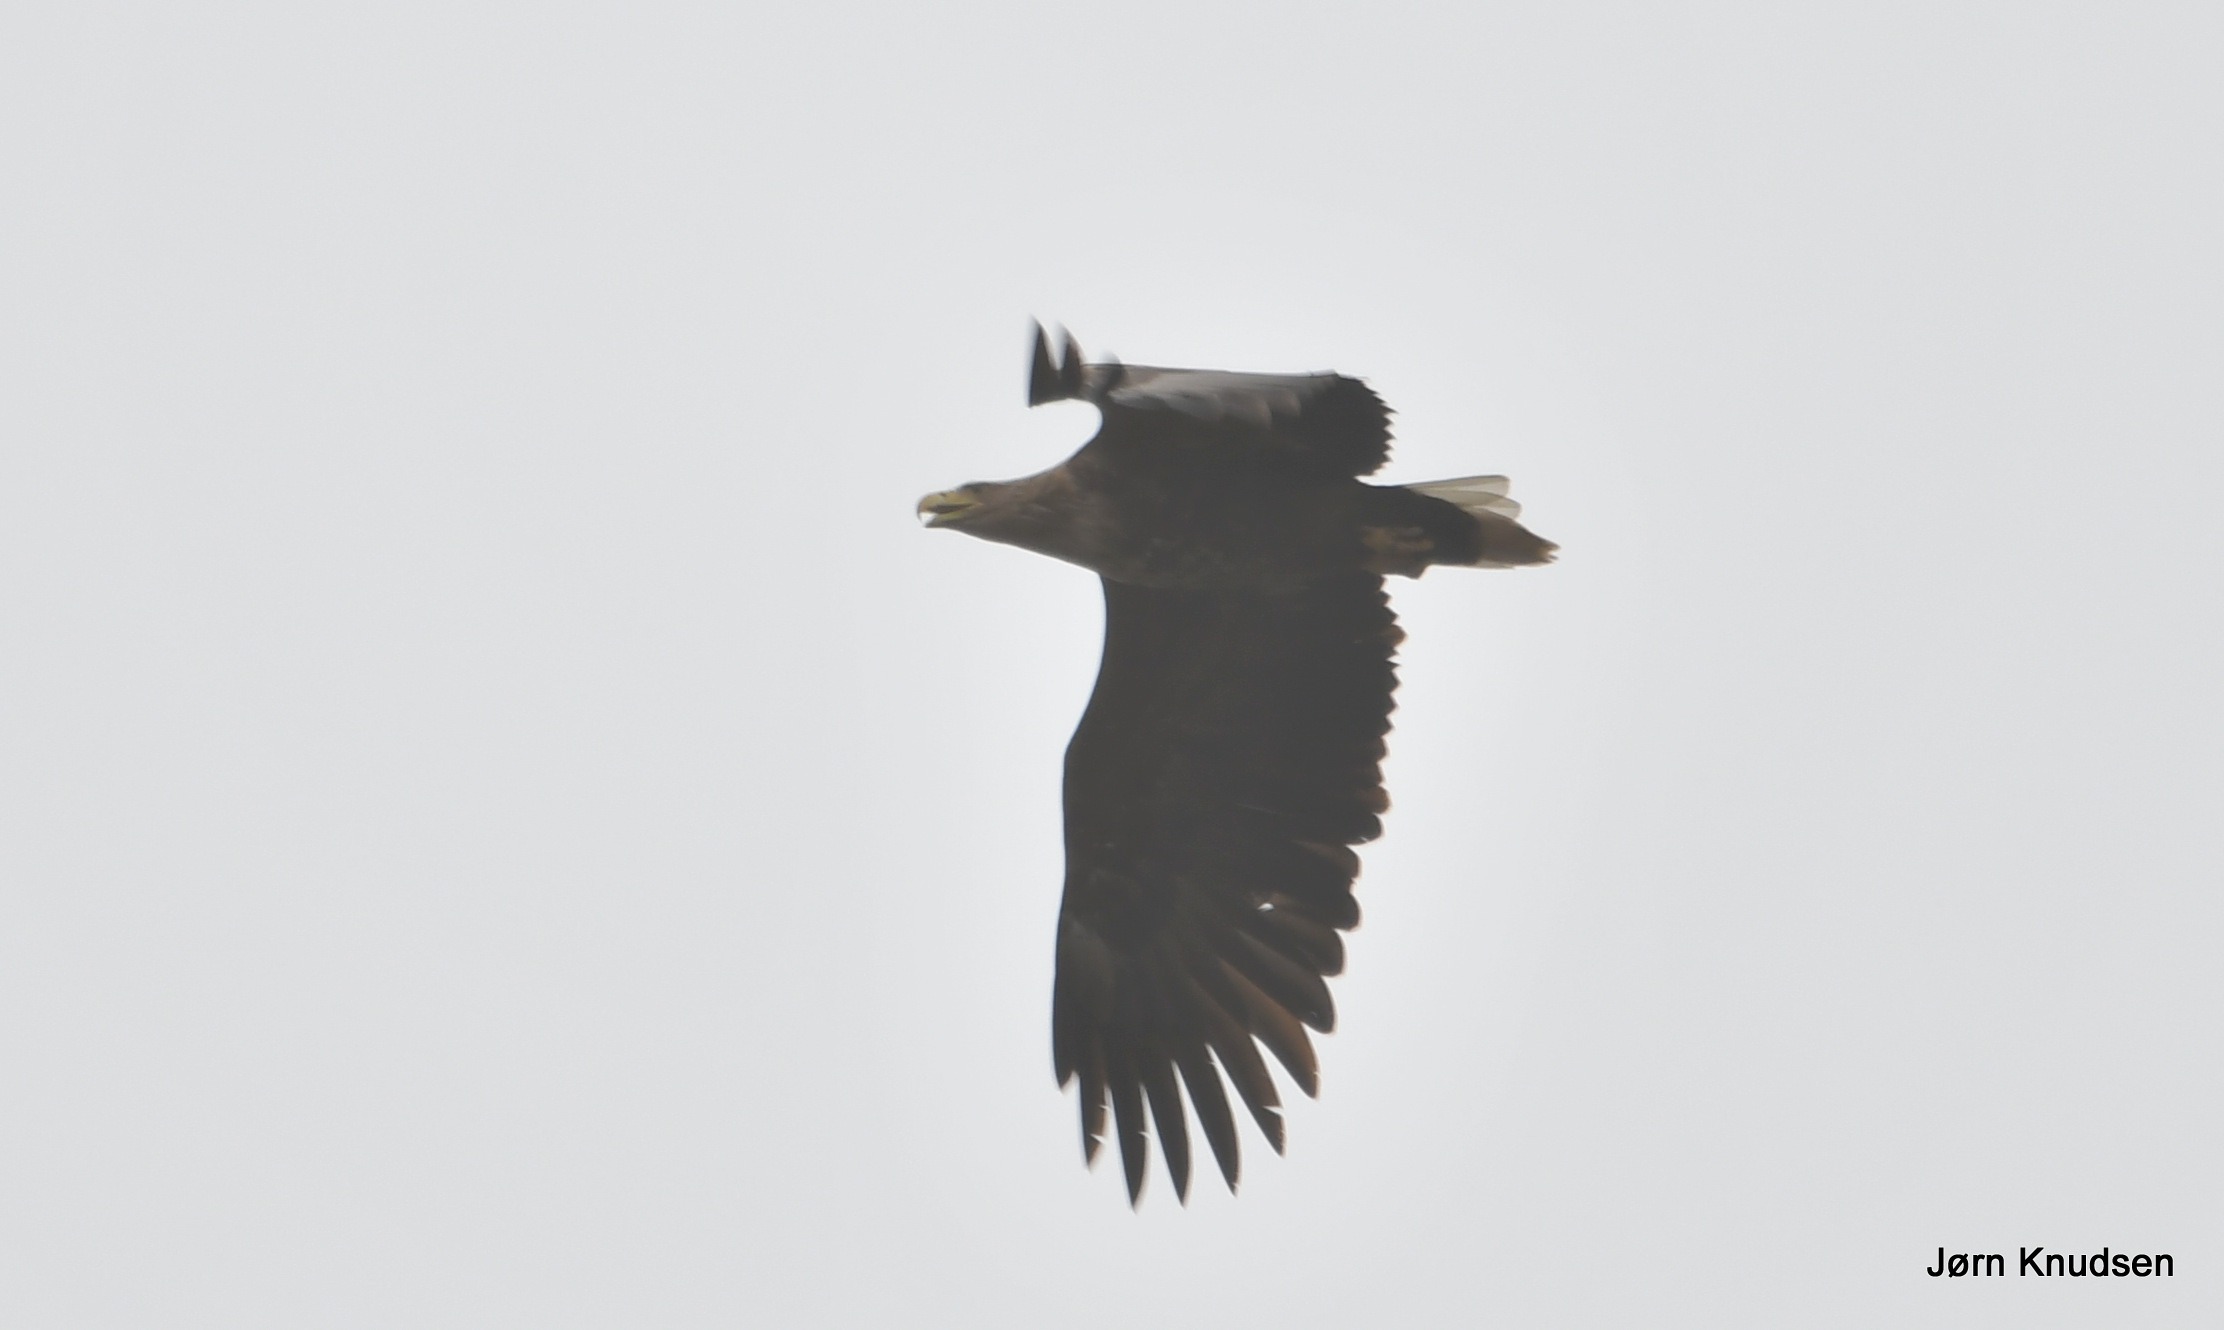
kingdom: Animalia
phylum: Chordata
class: Aves
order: Accipitriformes
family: Accipitridae
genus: Haliaeetus
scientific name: Haliaeetus albicilla
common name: Havørn
